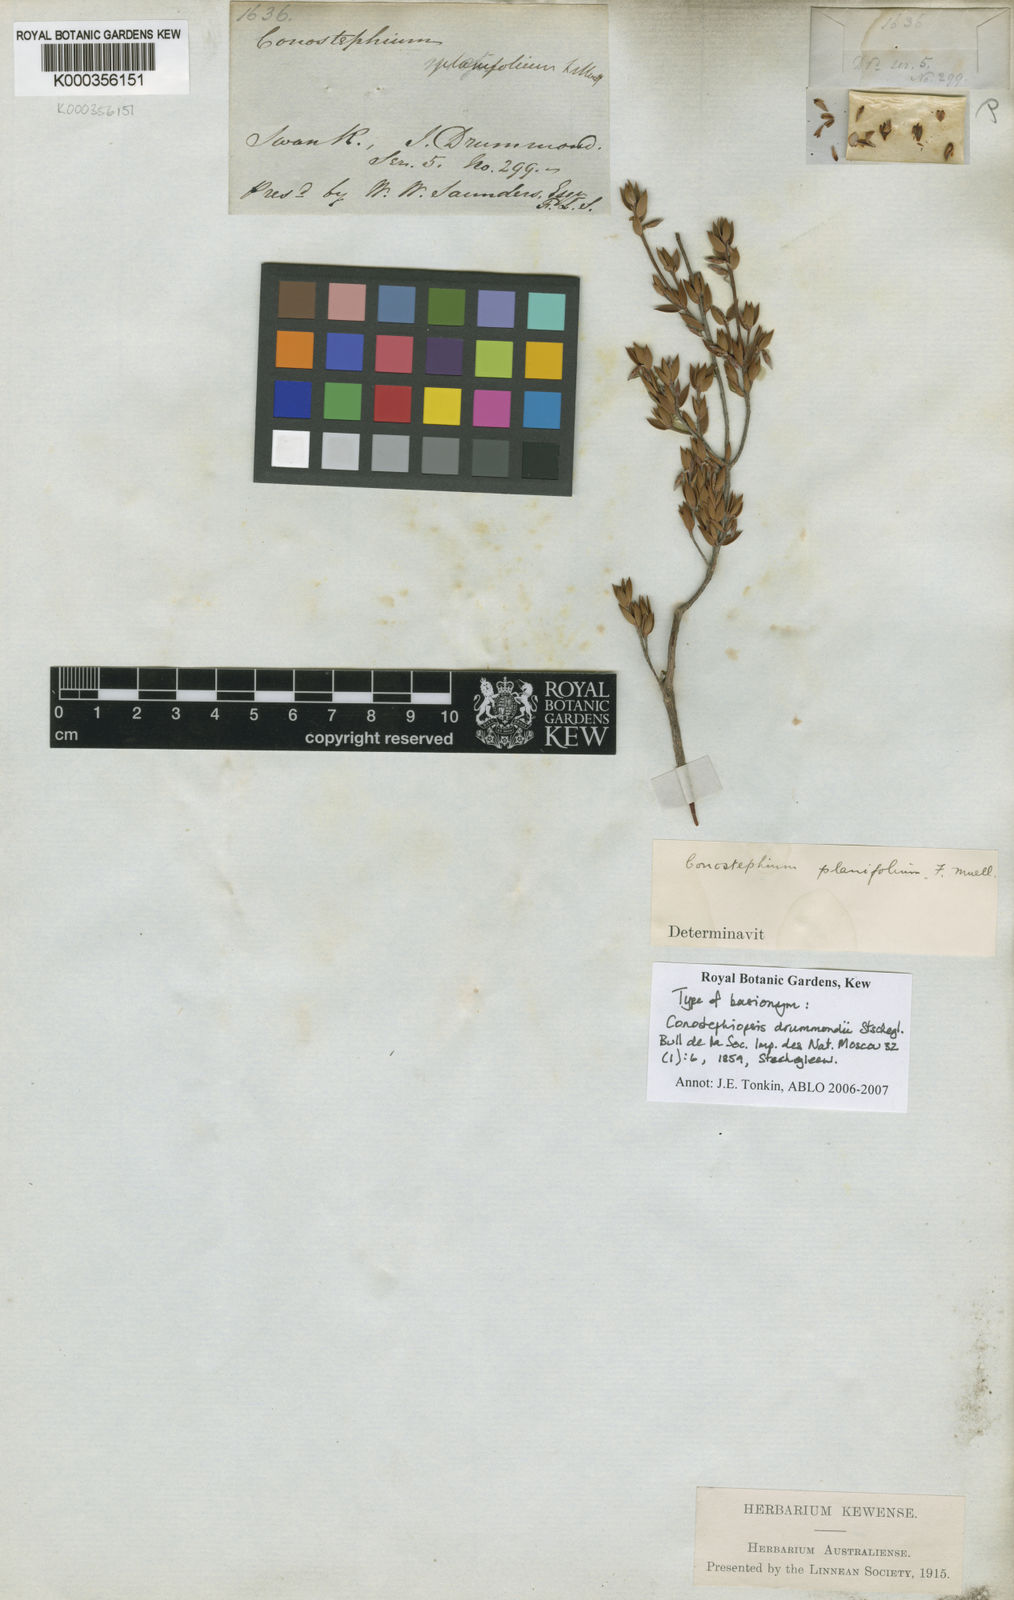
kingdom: Plantae
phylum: Tracheophyta
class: Magnoliopsida
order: Ericales
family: Ericaceae
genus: Conostephium
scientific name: Conostephium drummondii
